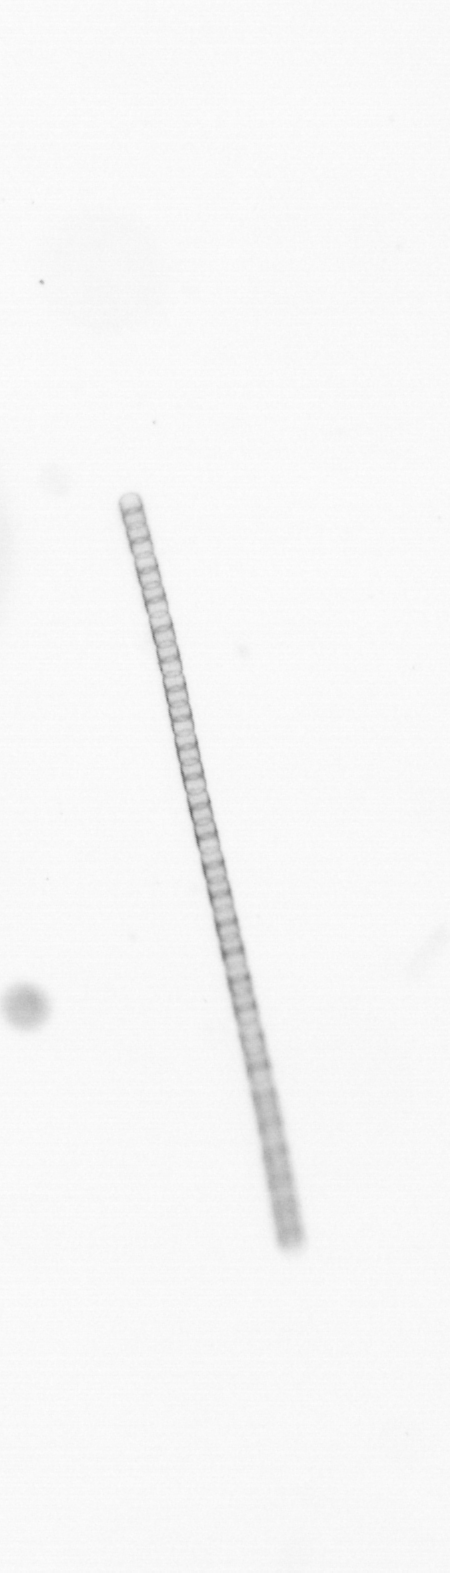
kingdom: Chromista
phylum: Ochrophyta
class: Bacillariophyceae
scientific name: Bacillariophyceae
